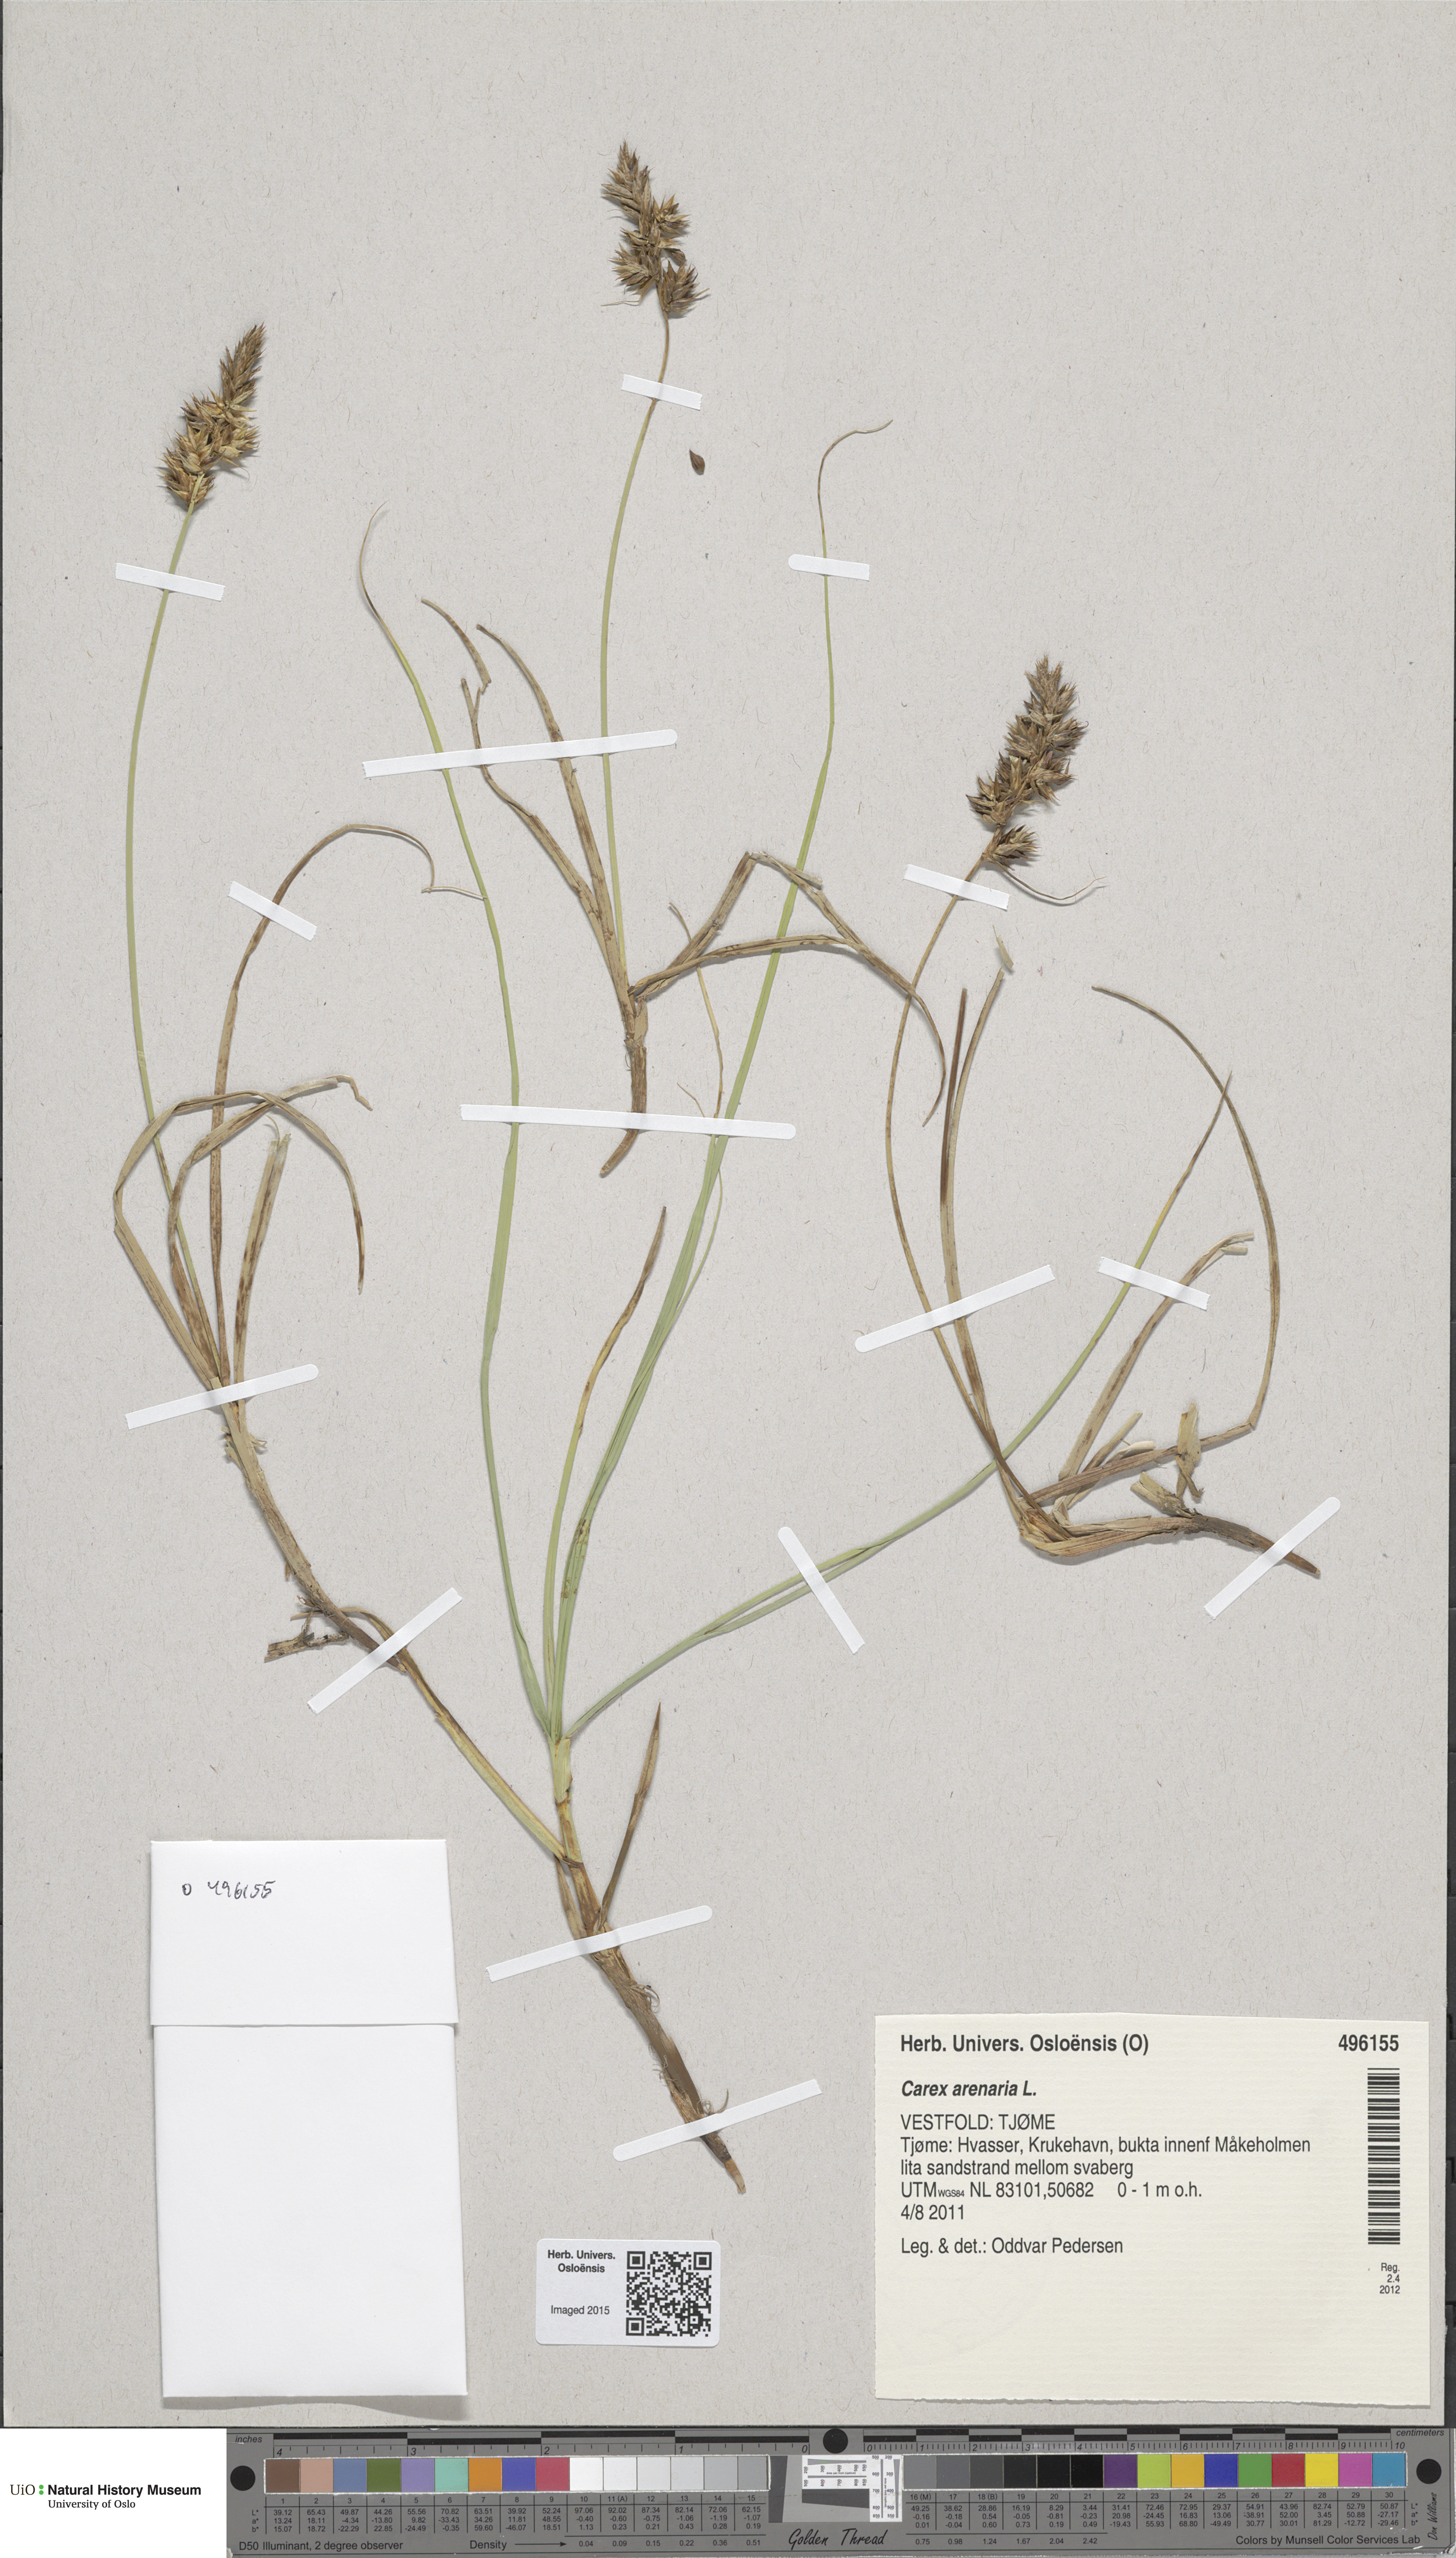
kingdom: Plantae
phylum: Tracheophyta
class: Liliopsida
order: Poales
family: Cyperaceae
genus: Carex
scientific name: Carex arenaria
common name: Sand sedge
